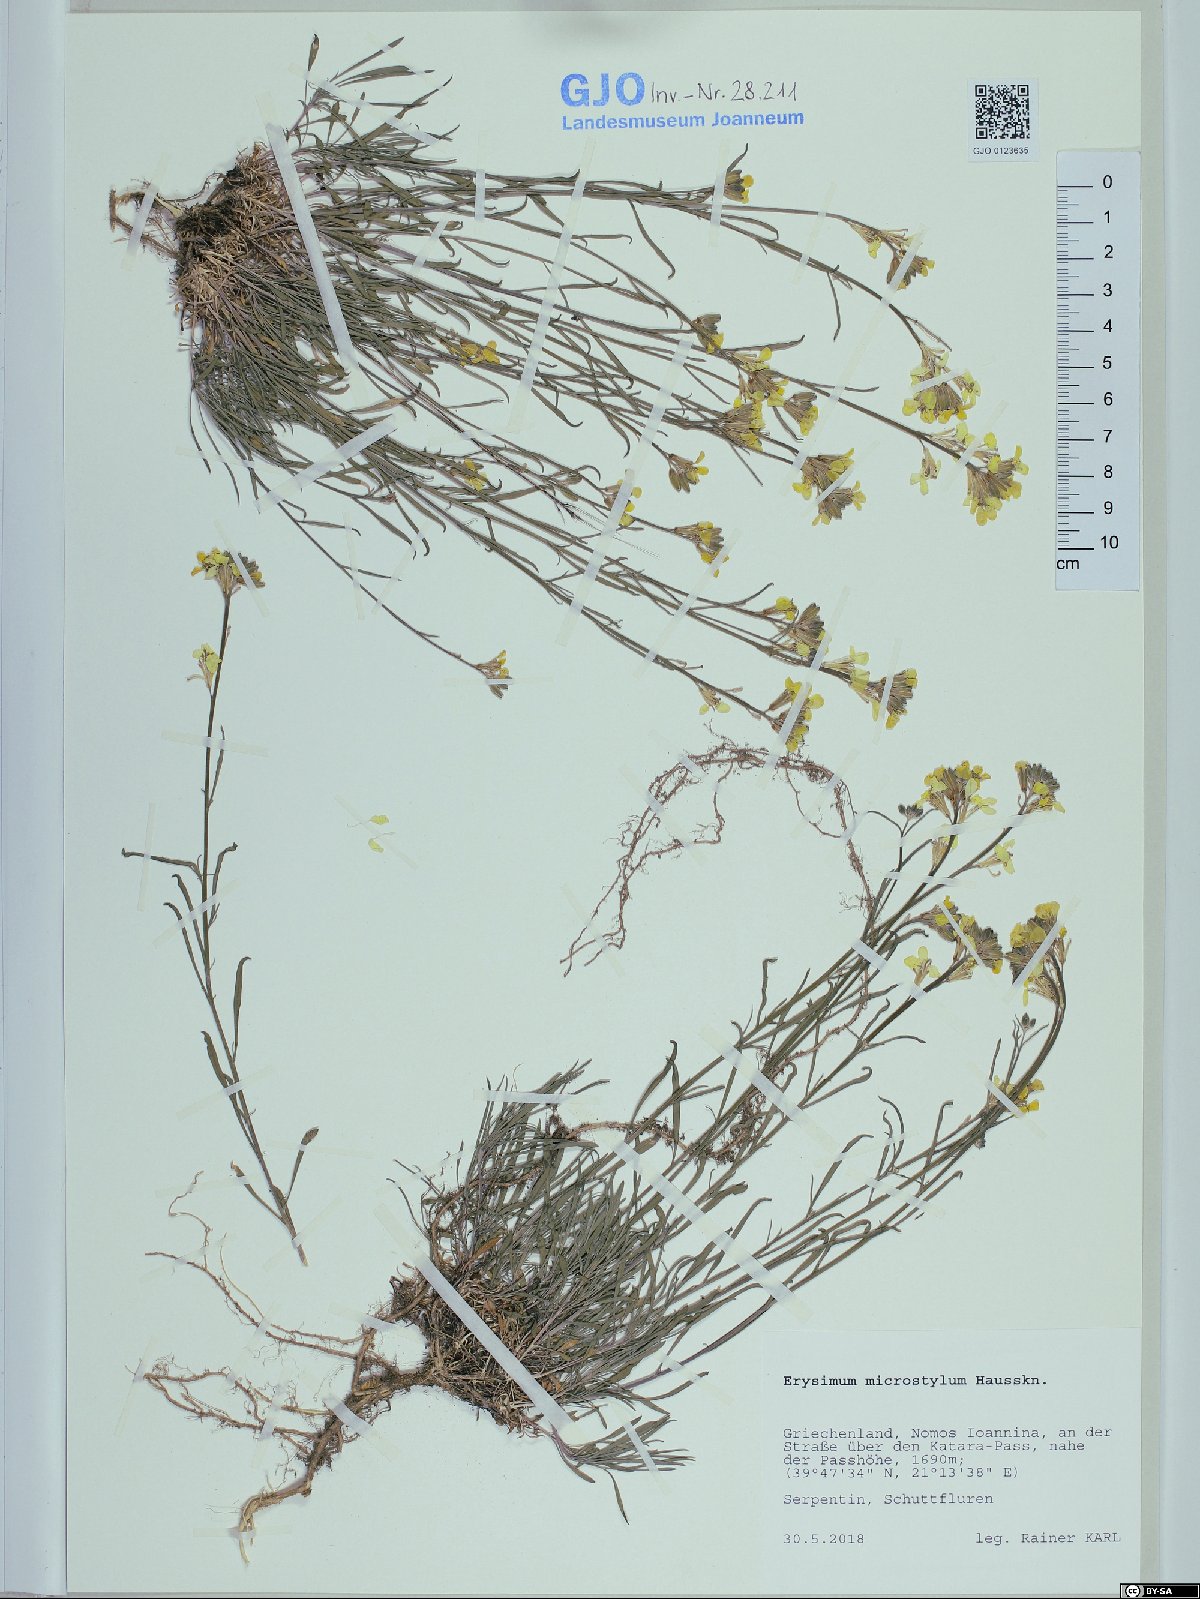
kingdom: Plantae
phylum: Tracheophyta
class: Magnoliopsida
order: Brassicales
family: Brassicaceae
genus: Erysimum
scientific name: Erysimum pusillum
